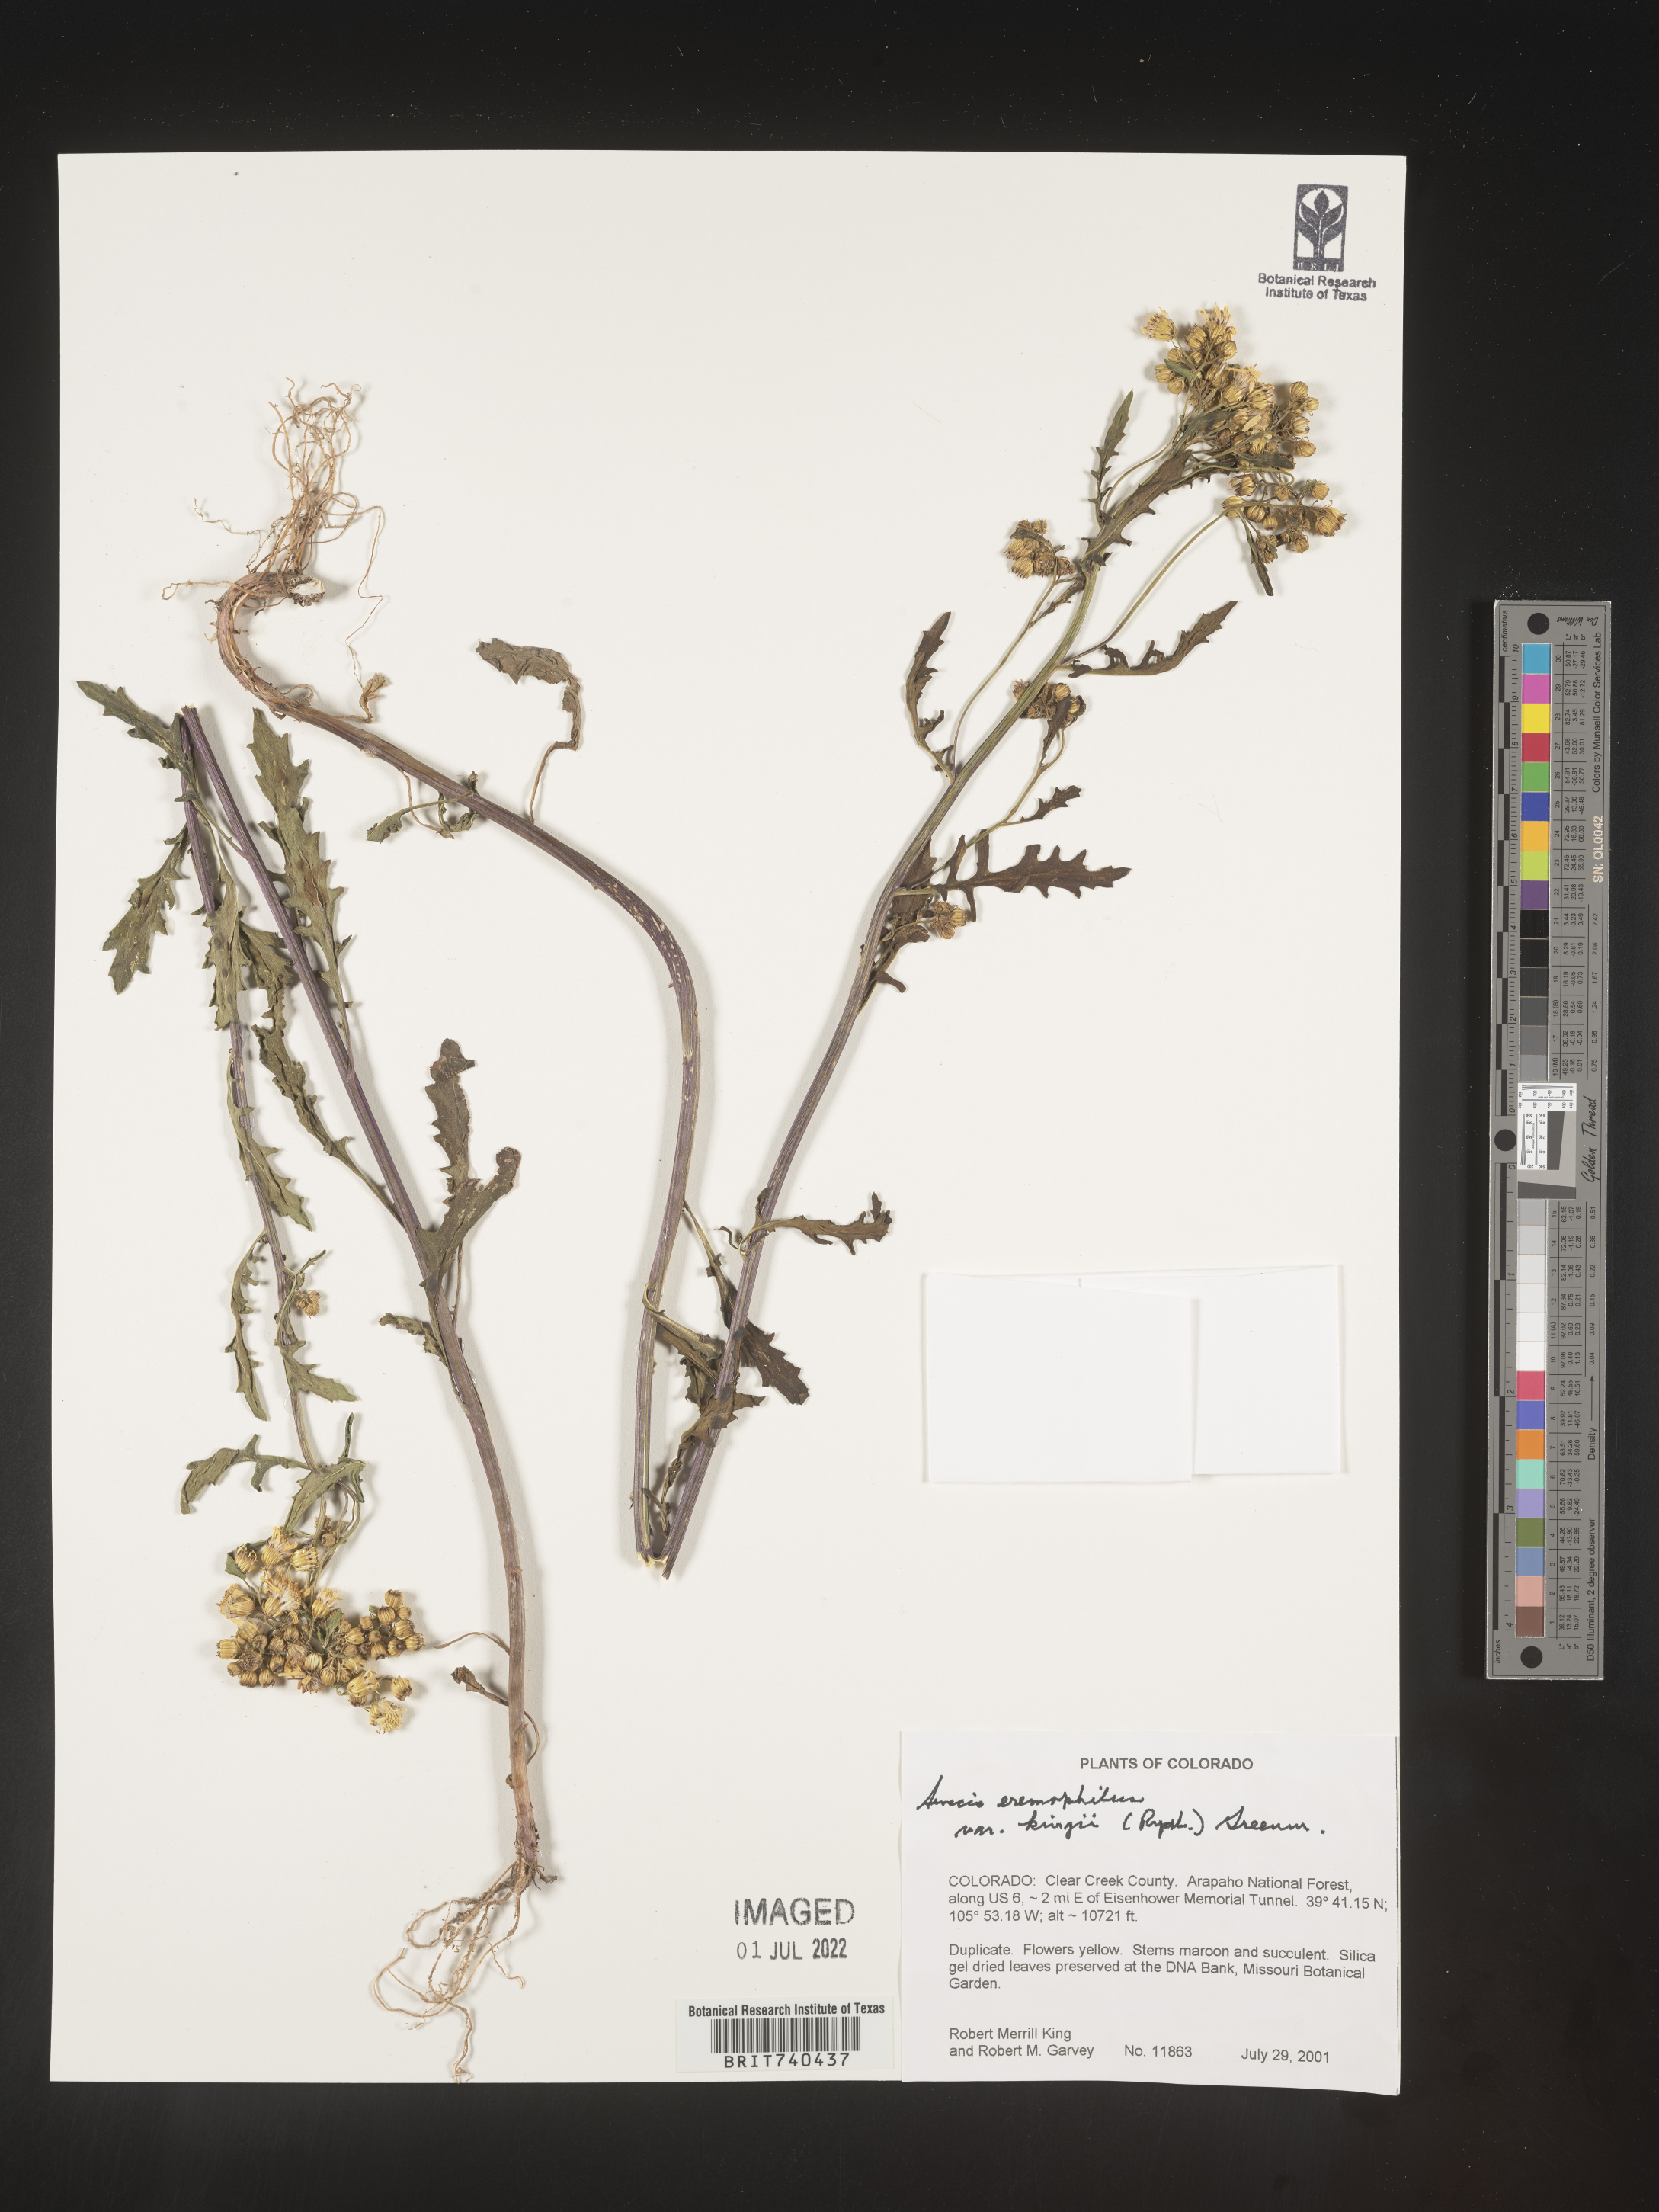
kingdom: Plantae
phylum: Tracheophyta
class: Magnoliopsida
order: Asterales
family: Asteraceae
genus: Senecio
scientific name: Senecio eremophilus
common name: Desert ragwort
